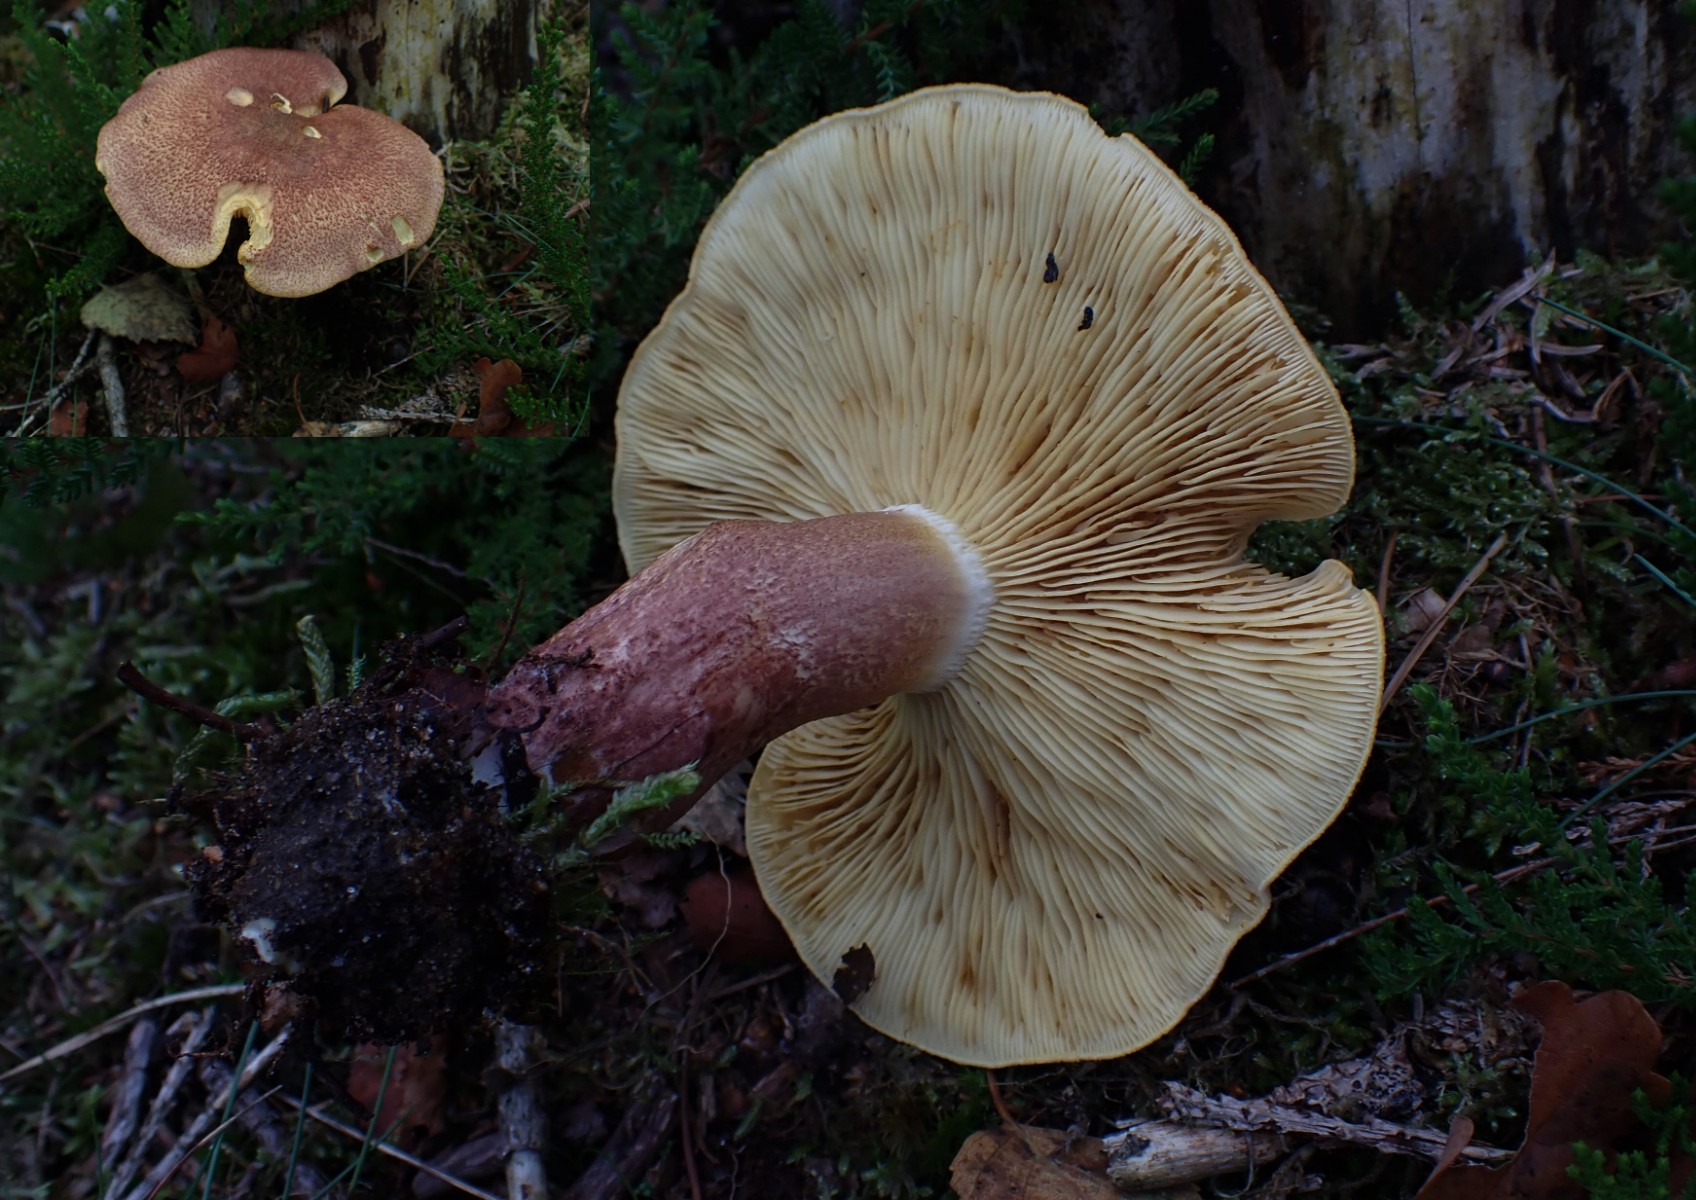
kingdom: Fungi
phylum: Basidiomycota
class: Agaricomycetes
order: Agaricales
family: Tricholomataceae
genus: Tricholomopsis
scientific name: Tricholomopsis rutilans
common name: purpur-væbnerhat
